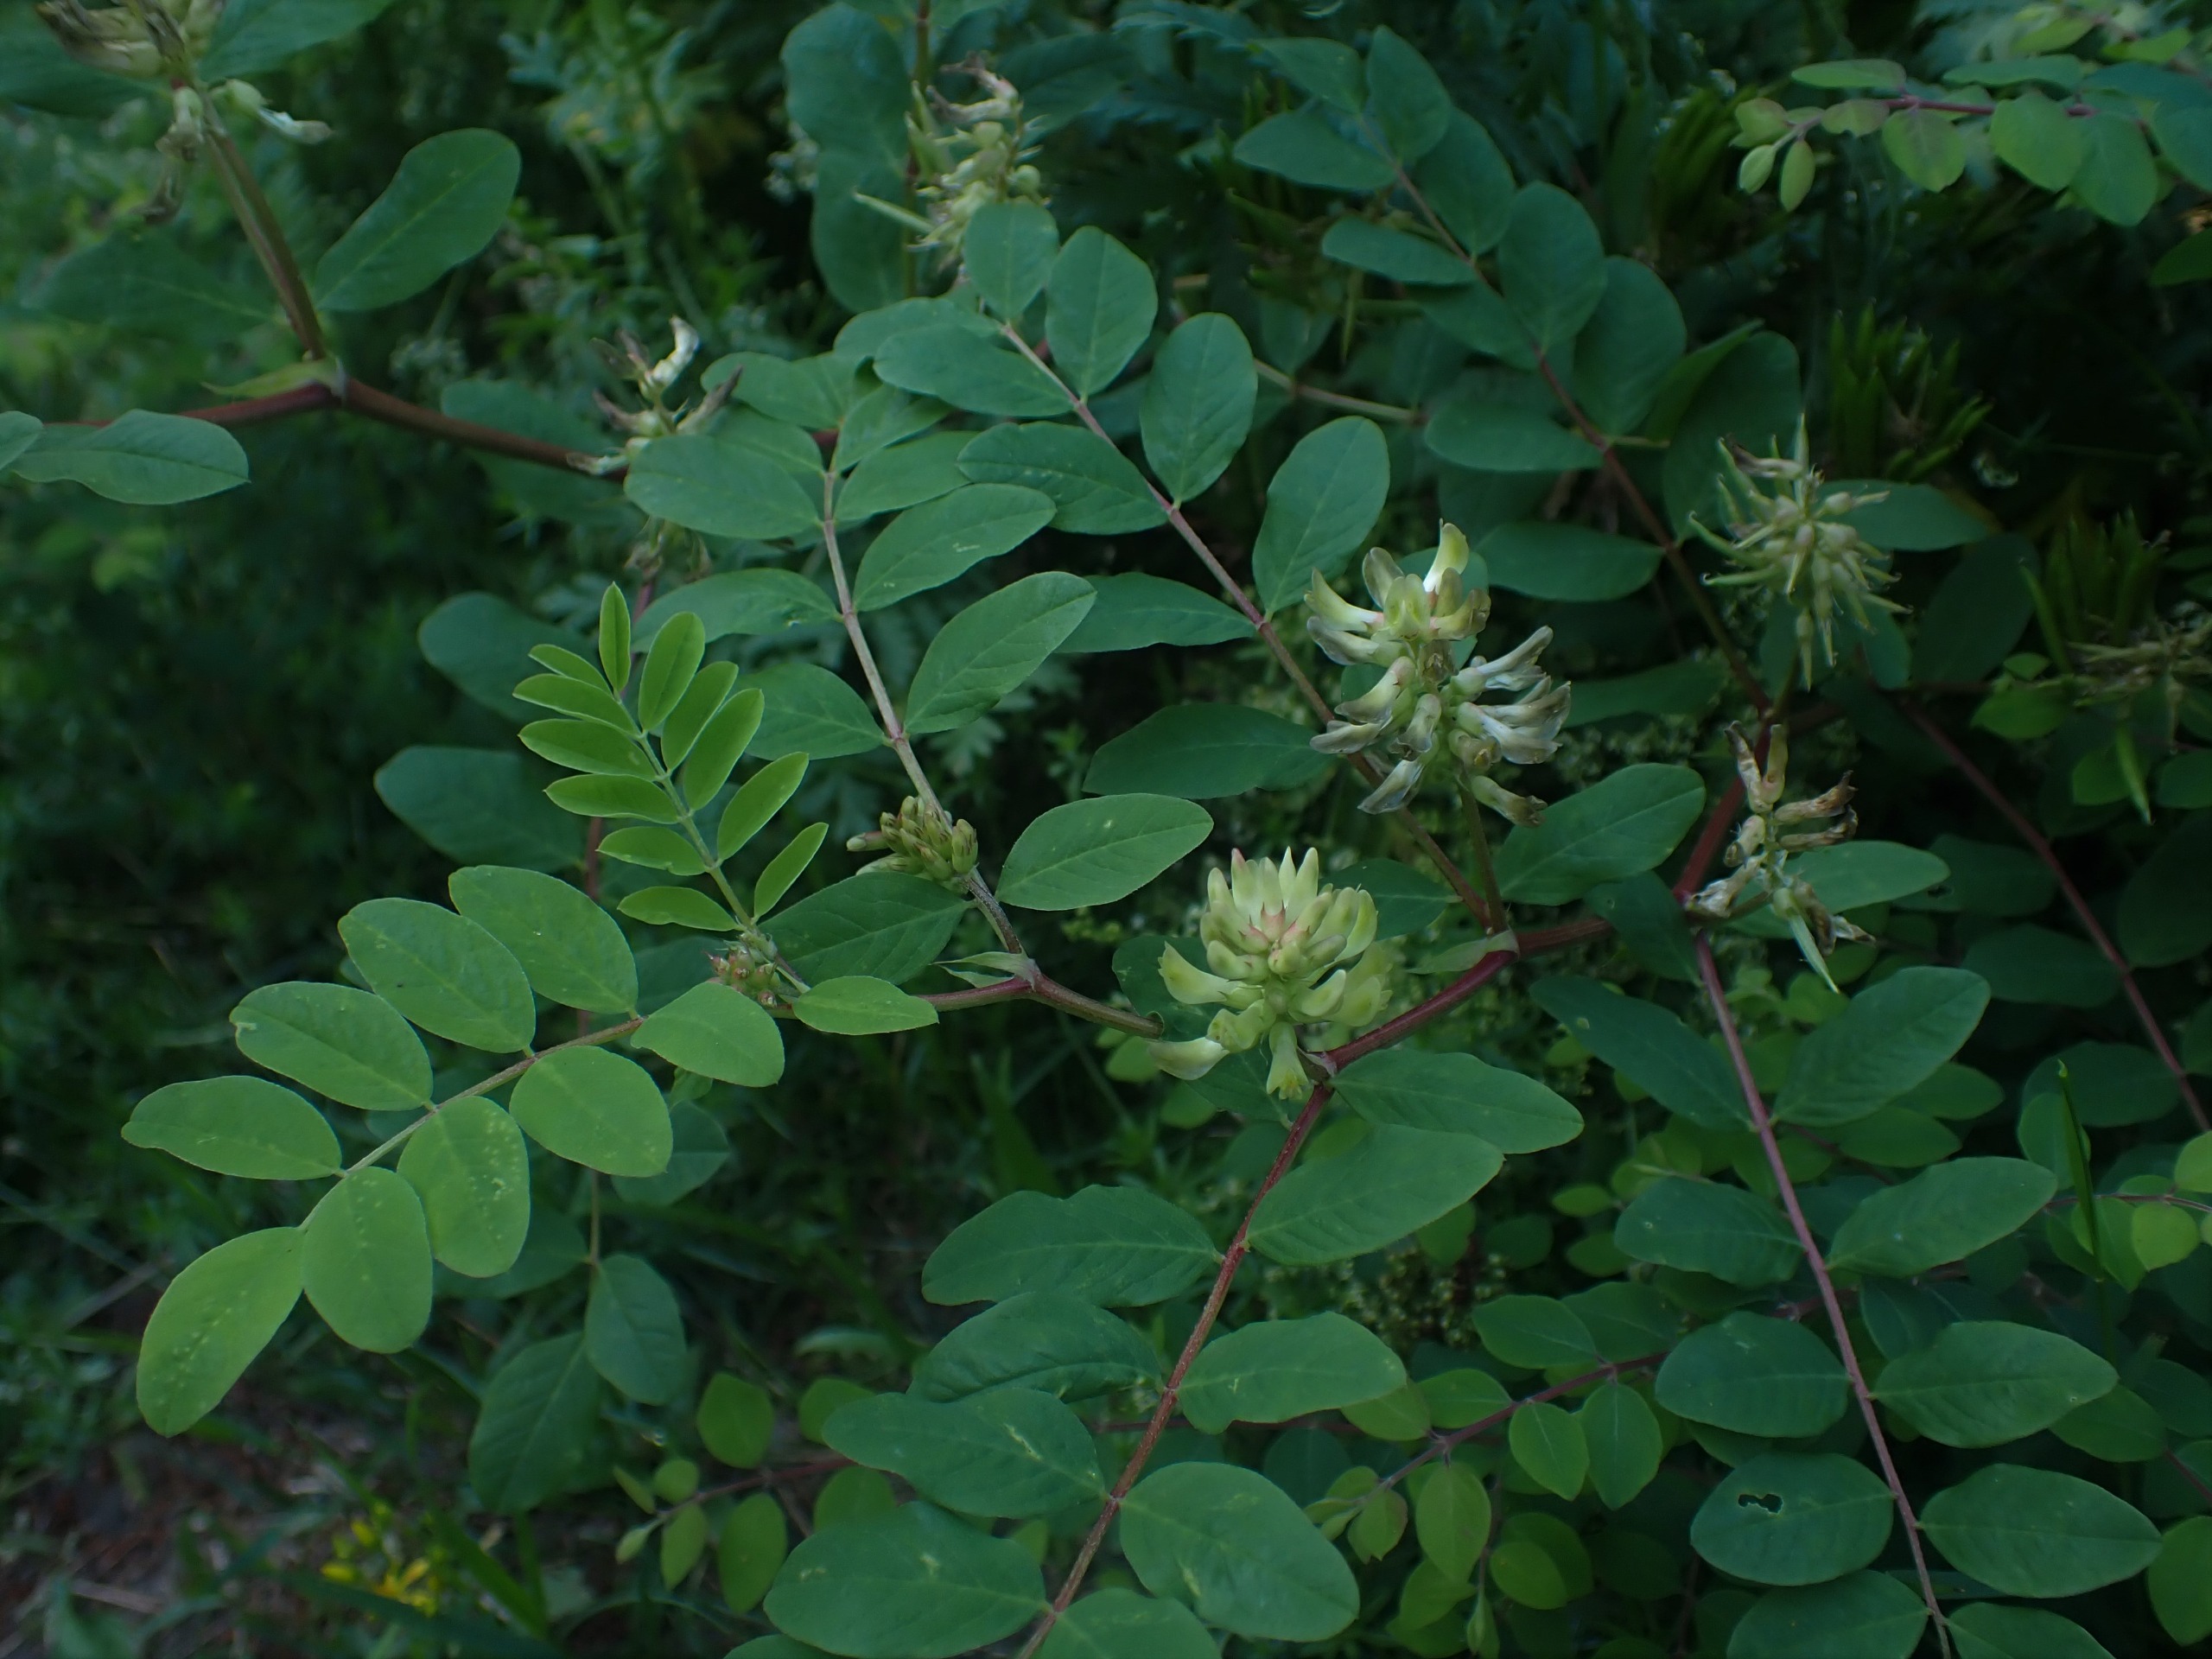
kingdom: Plantae
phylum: Tracheophyta
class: Magnoliopsida
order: Fabales
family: Fabaceae
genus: Astragalus
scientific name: Astragalus glycyphyllos
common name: Sød astragel
